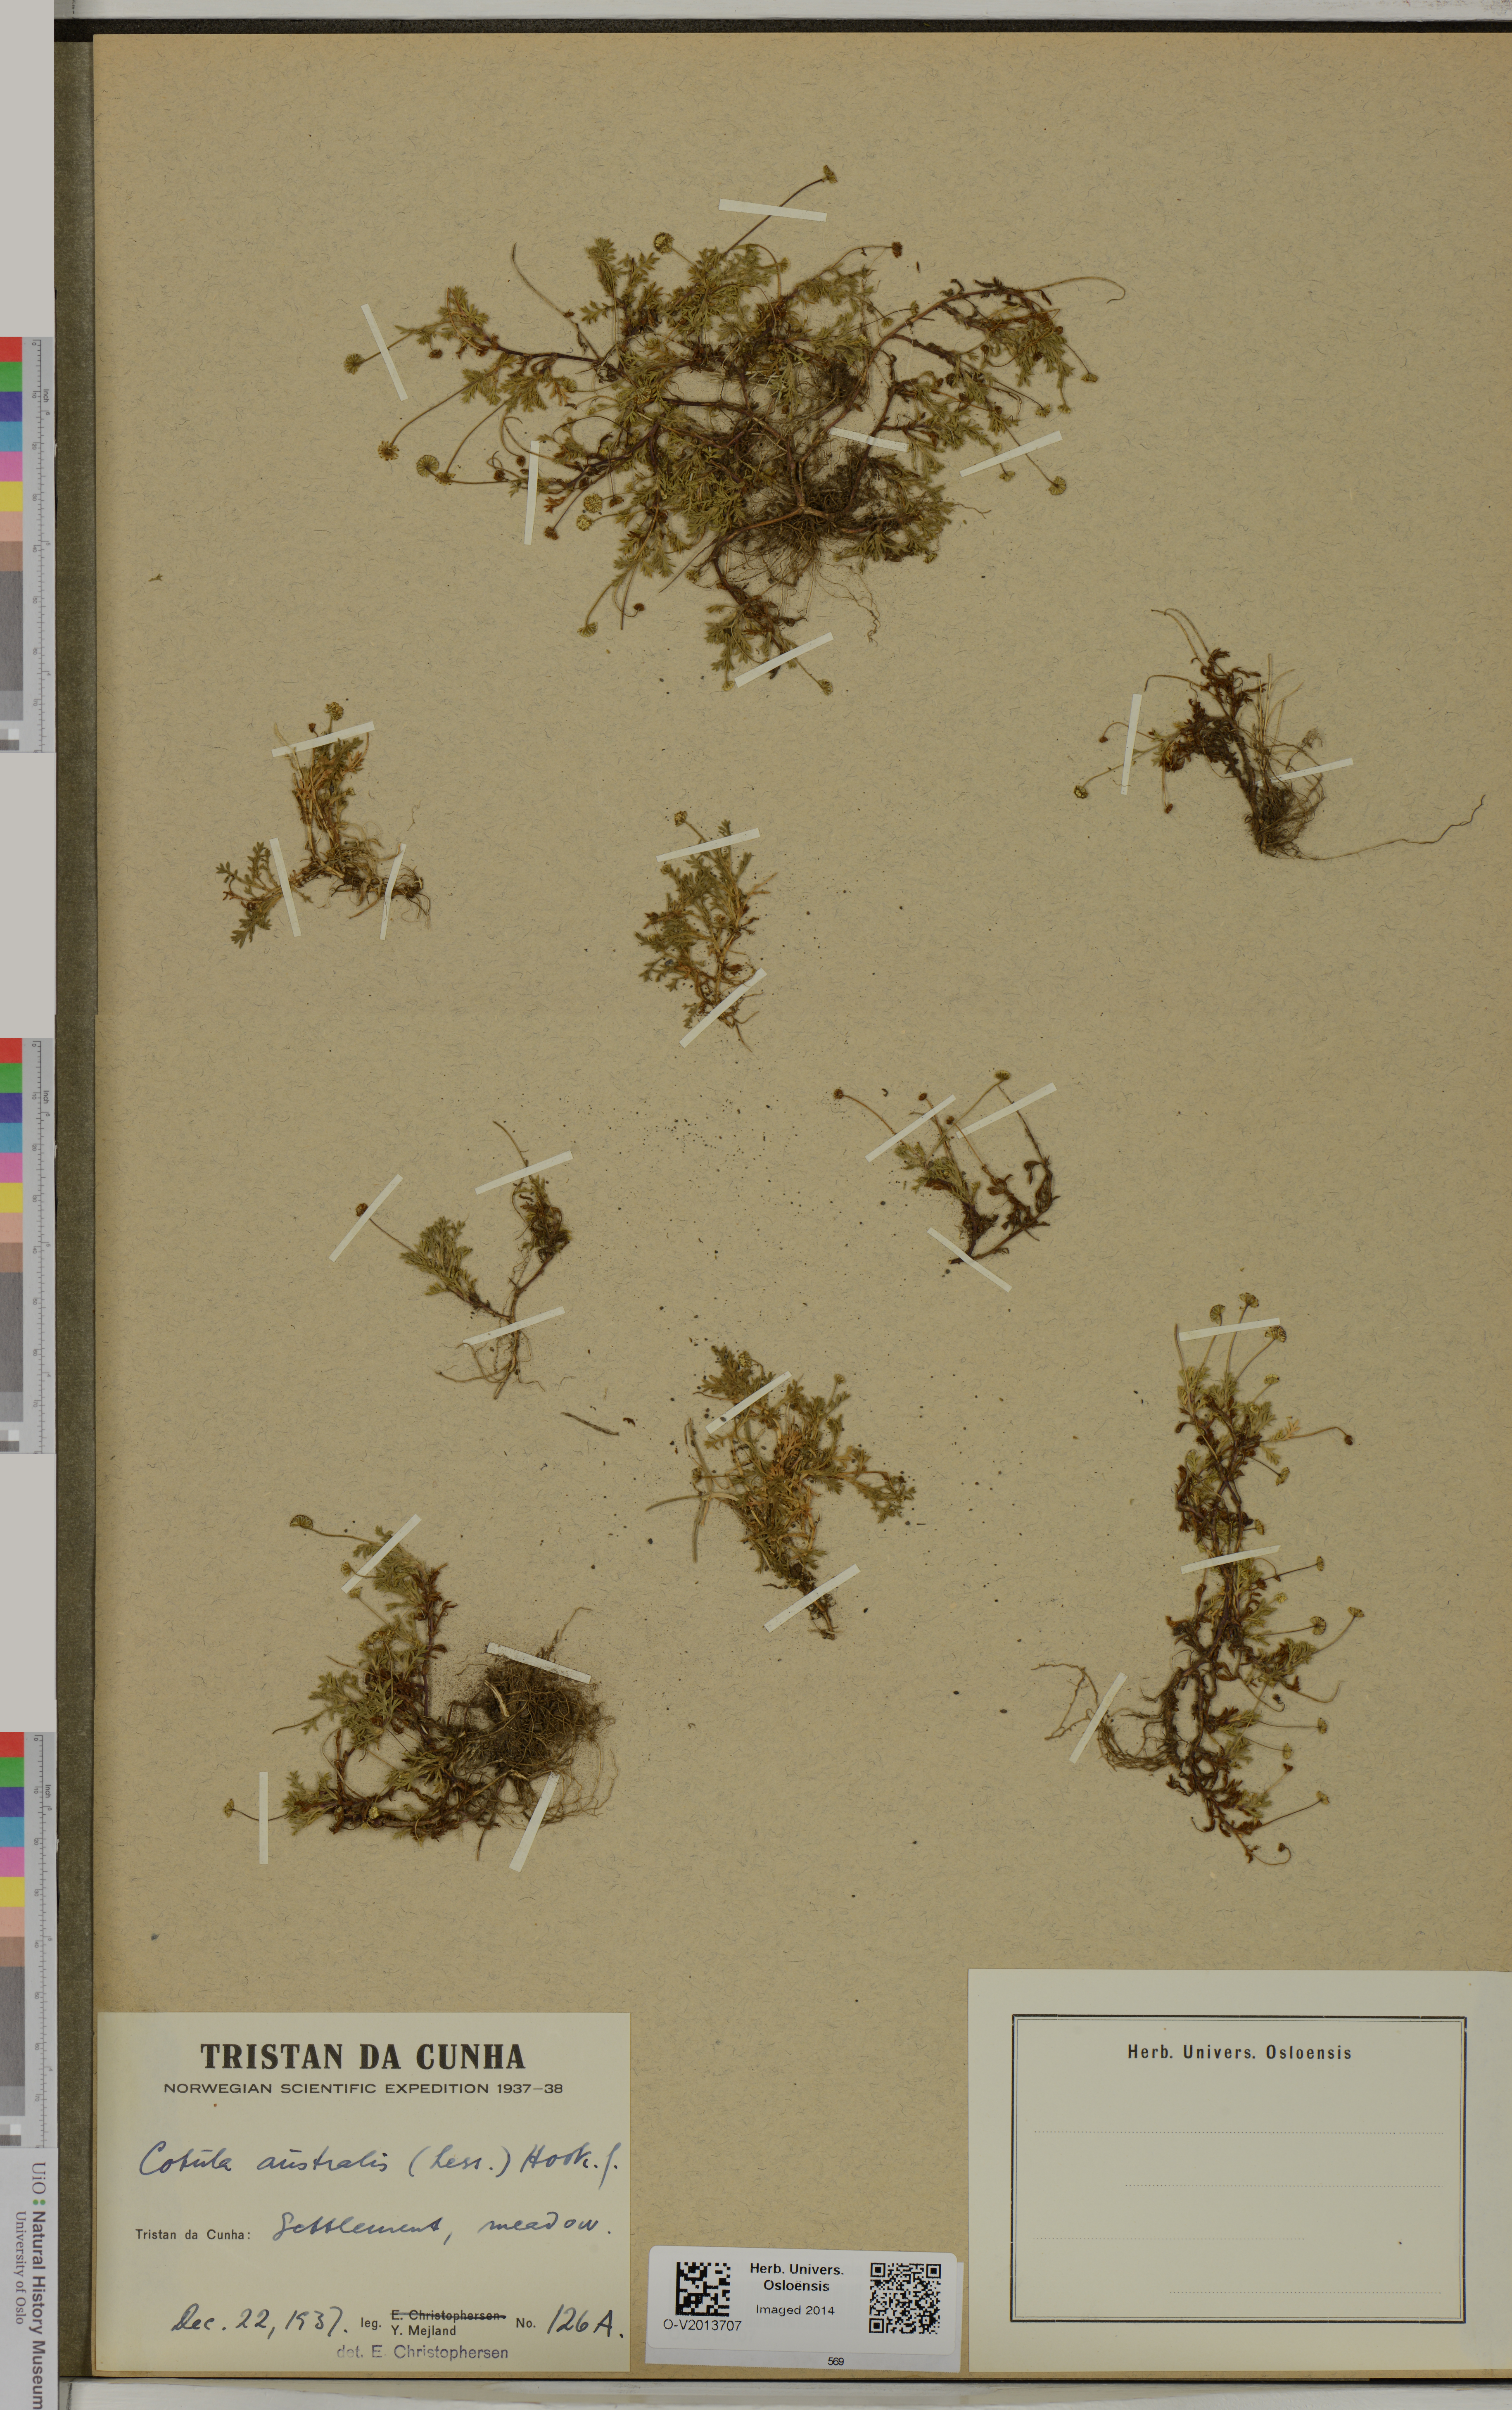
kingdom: Plantae
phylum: Tracheophyta
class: Magnoliopsida
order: Asterales
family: Asteraceae
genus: Cotula
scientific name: Cotula australis
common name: Australian waterbuttons
